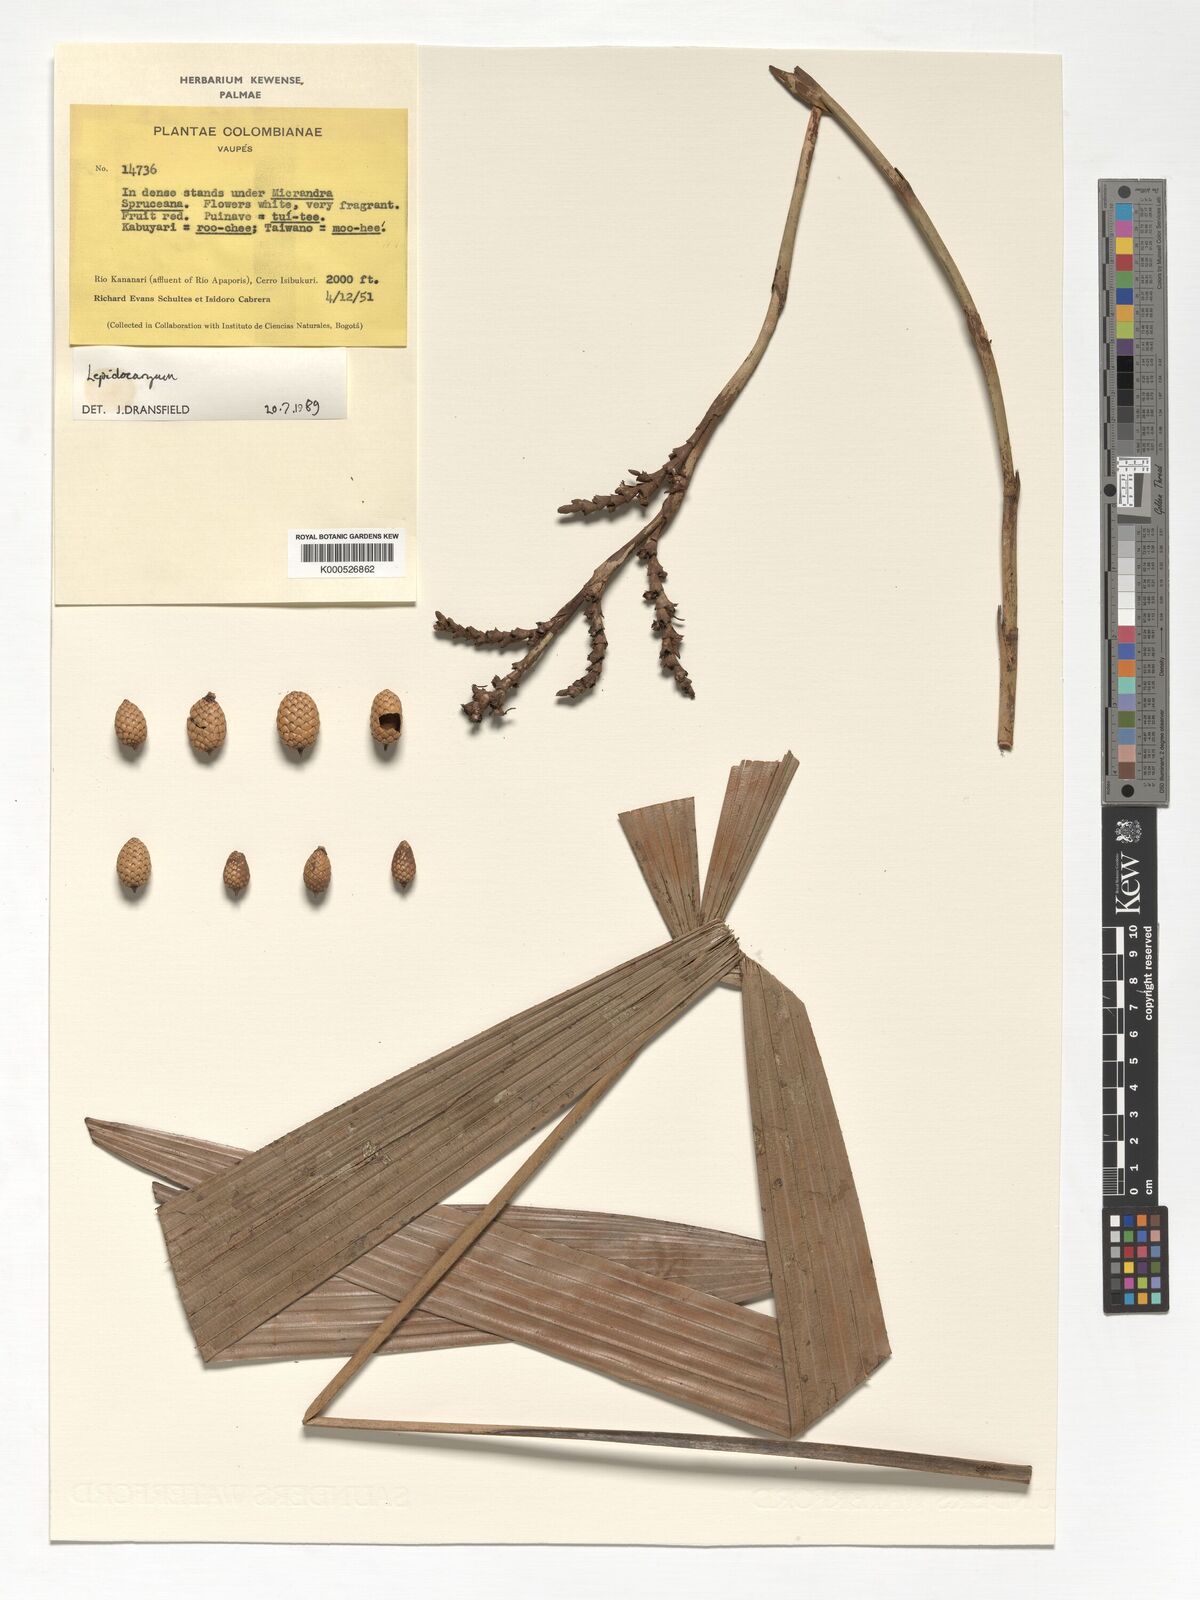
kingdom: Plantae
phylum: Tracheophyta
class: Liliopsida
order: Arecales
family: Arecaceae
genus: Lepidocaryum
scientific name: Lepidocaryum
